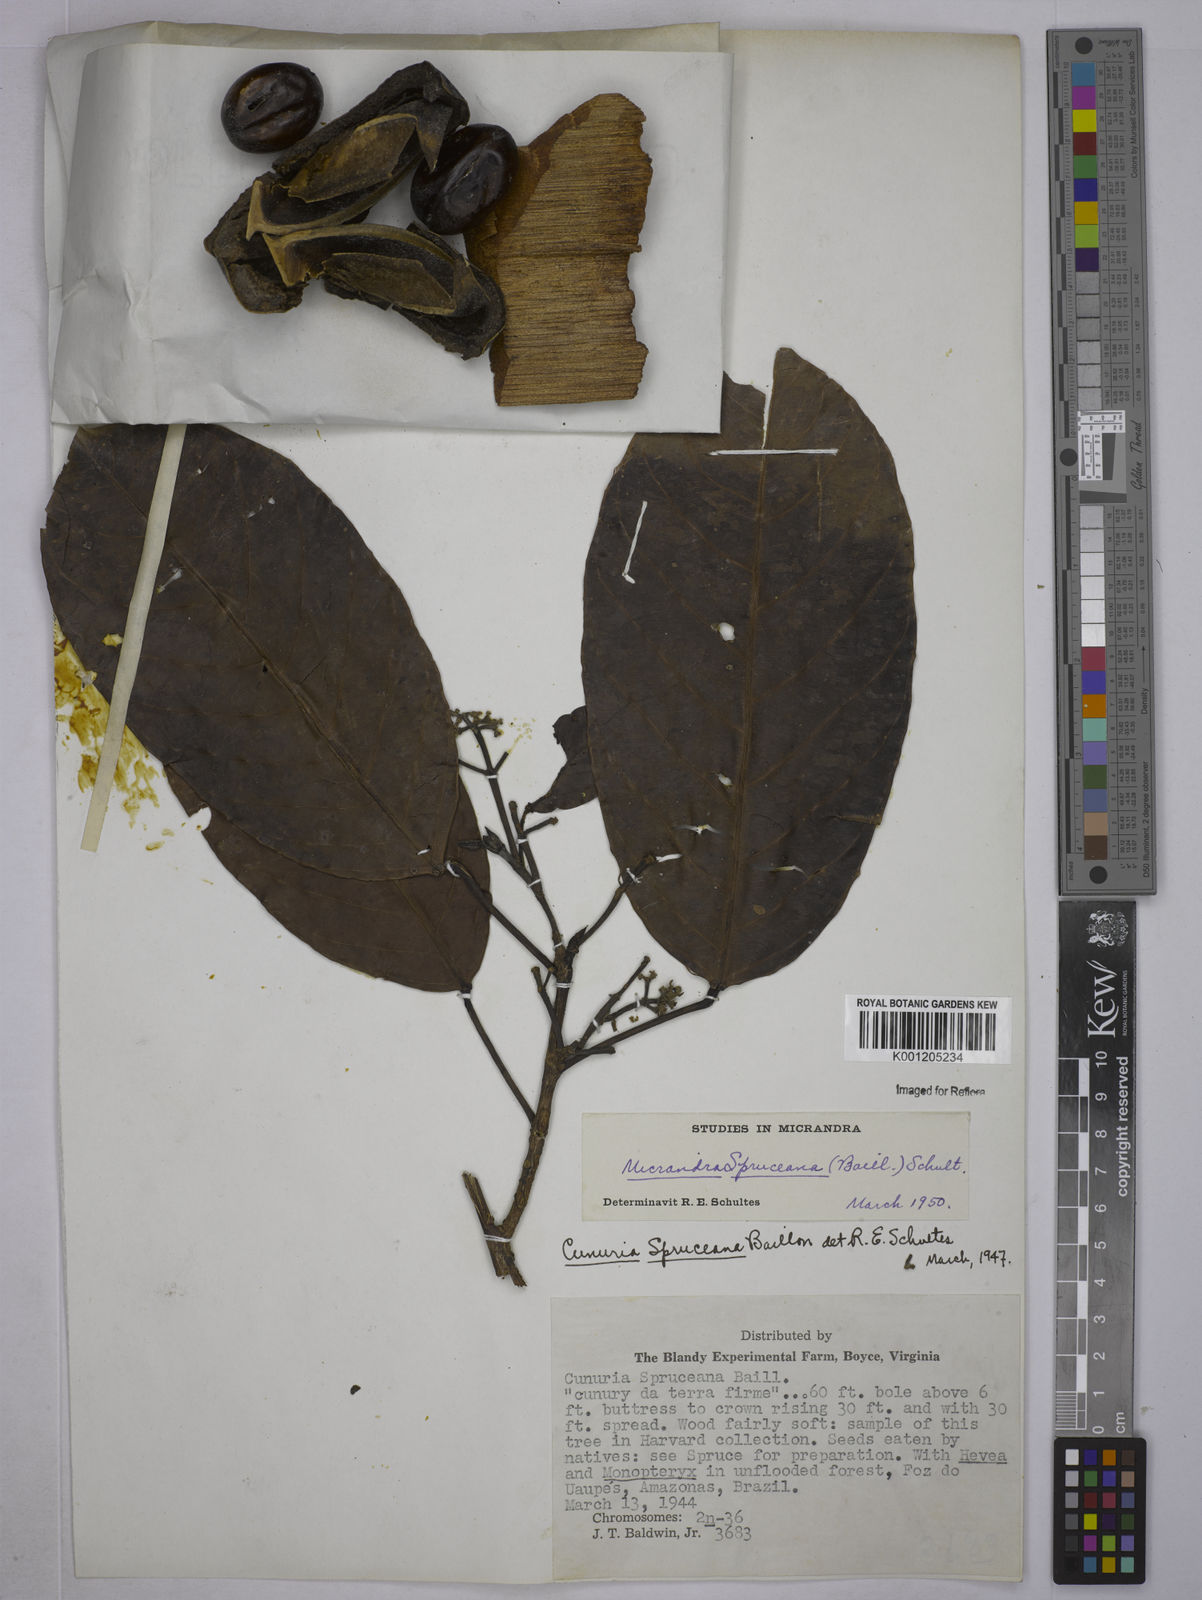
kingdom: Plantae
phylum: Tracheophyta
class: Magnoliopsida
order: Malpighiales
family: Euphorbiaceae
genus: Micrandra
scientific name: Micrandra spruceana
